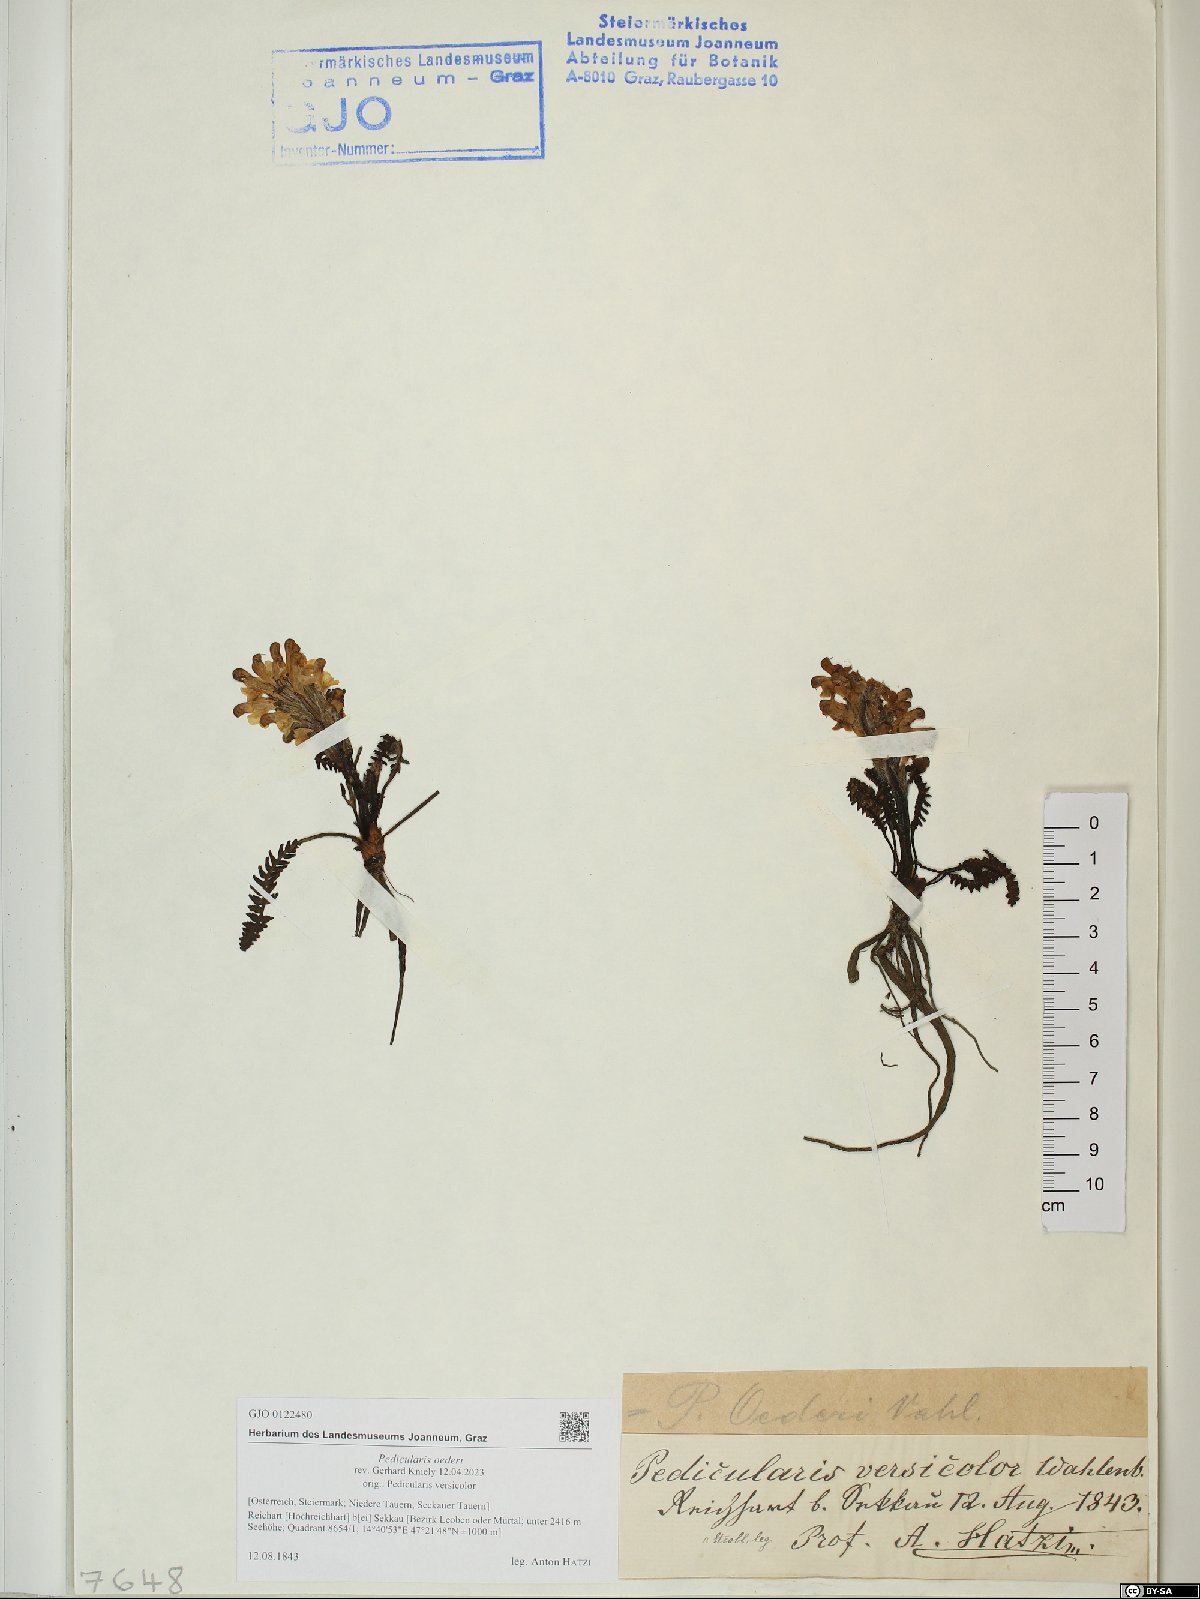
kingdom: Plantae
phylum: Tracheophyta
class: Magnoliopsida
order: Lamiales
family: Orobanchaceae
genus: Pedicularis
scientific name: Pedicularis oederi
